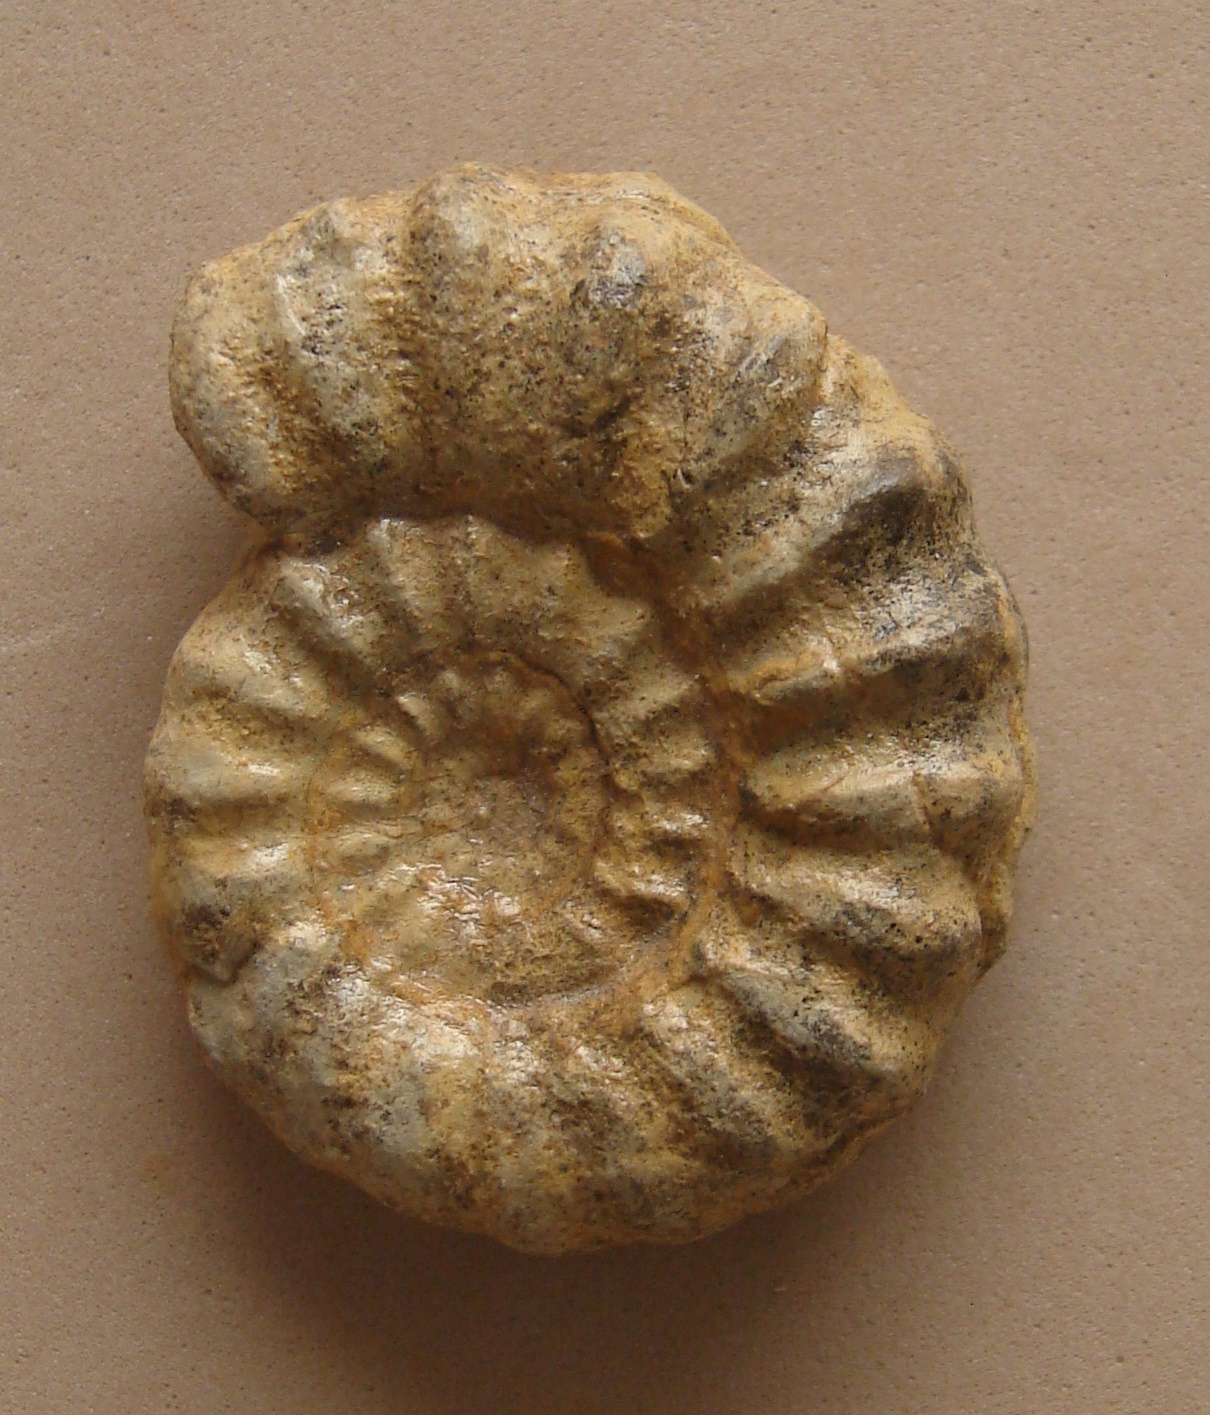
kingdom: Animalia
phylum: Mollusca
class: Cephalopoda
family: Liparoceratidae
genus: Androgynoceras
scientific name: Androgynoceras
